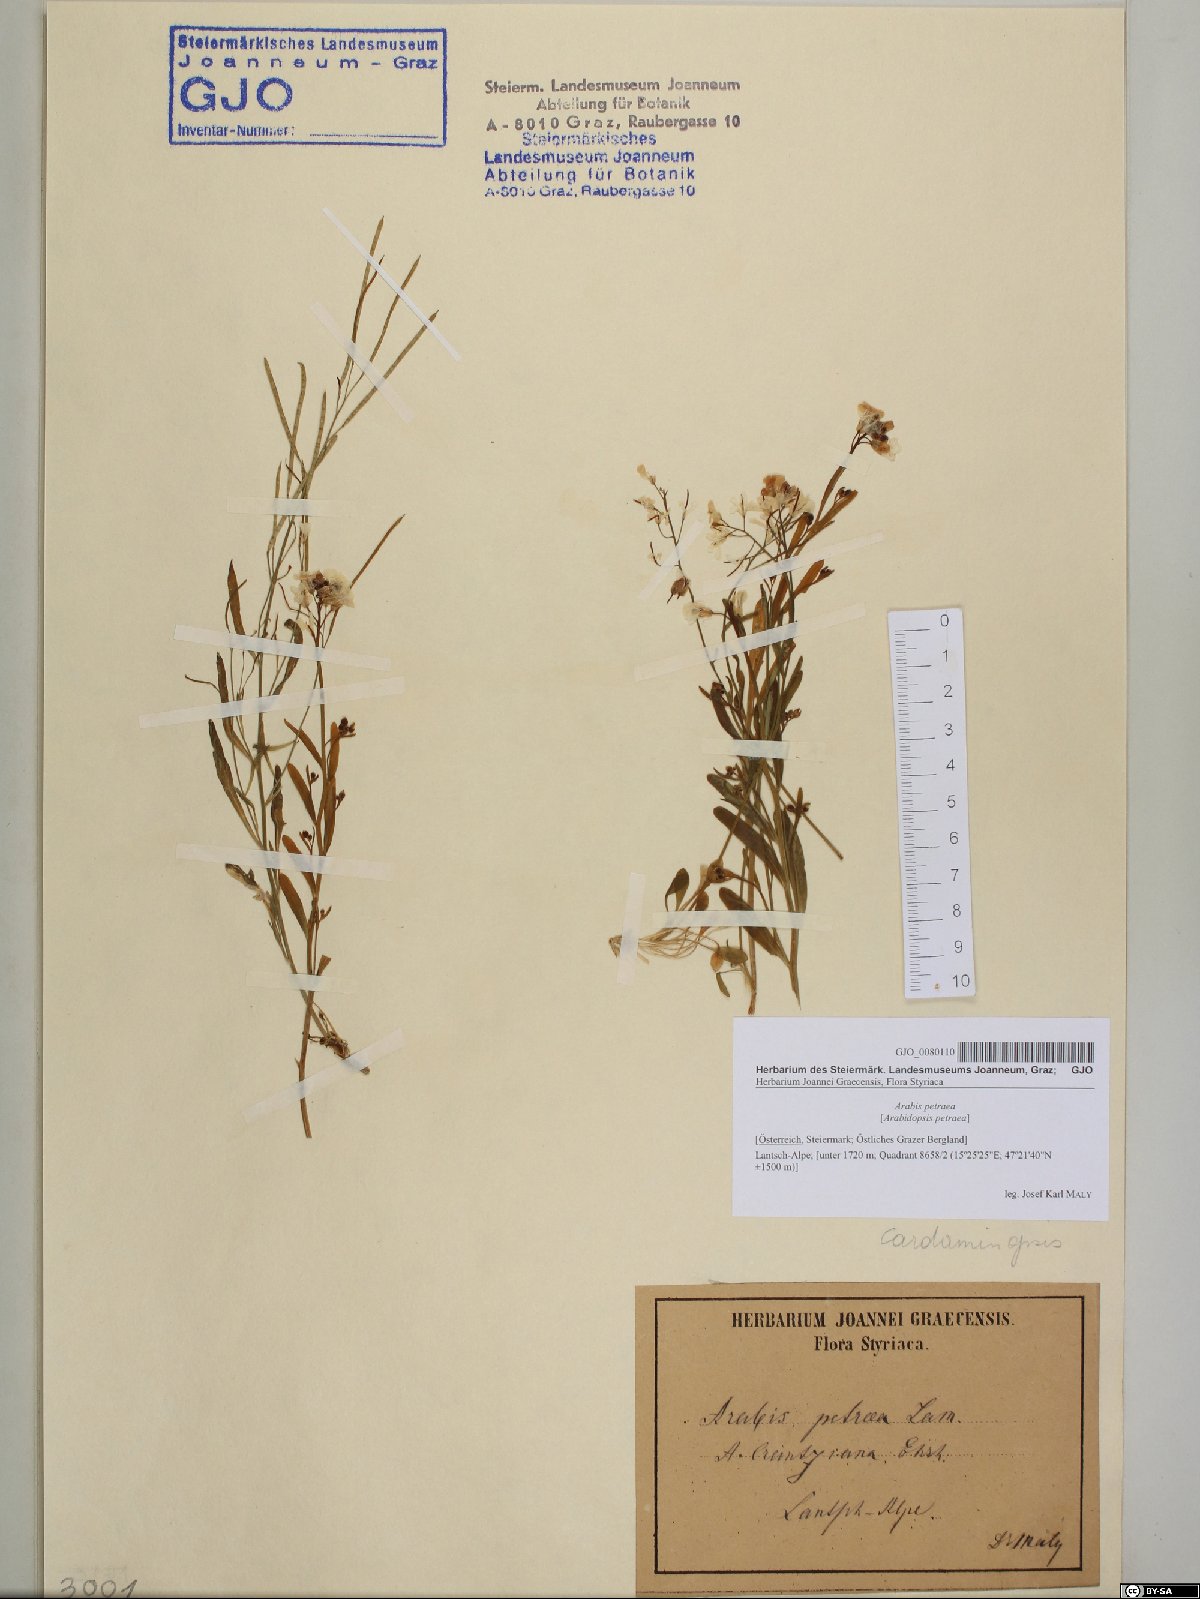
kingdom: Plantae
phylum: Tracheophyta
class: Magnoliopsida
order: Brassicales
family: Brassicaceae
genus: Arabidopsis
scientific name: Arabidopsis lyrata
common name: Lyrate rockcress
